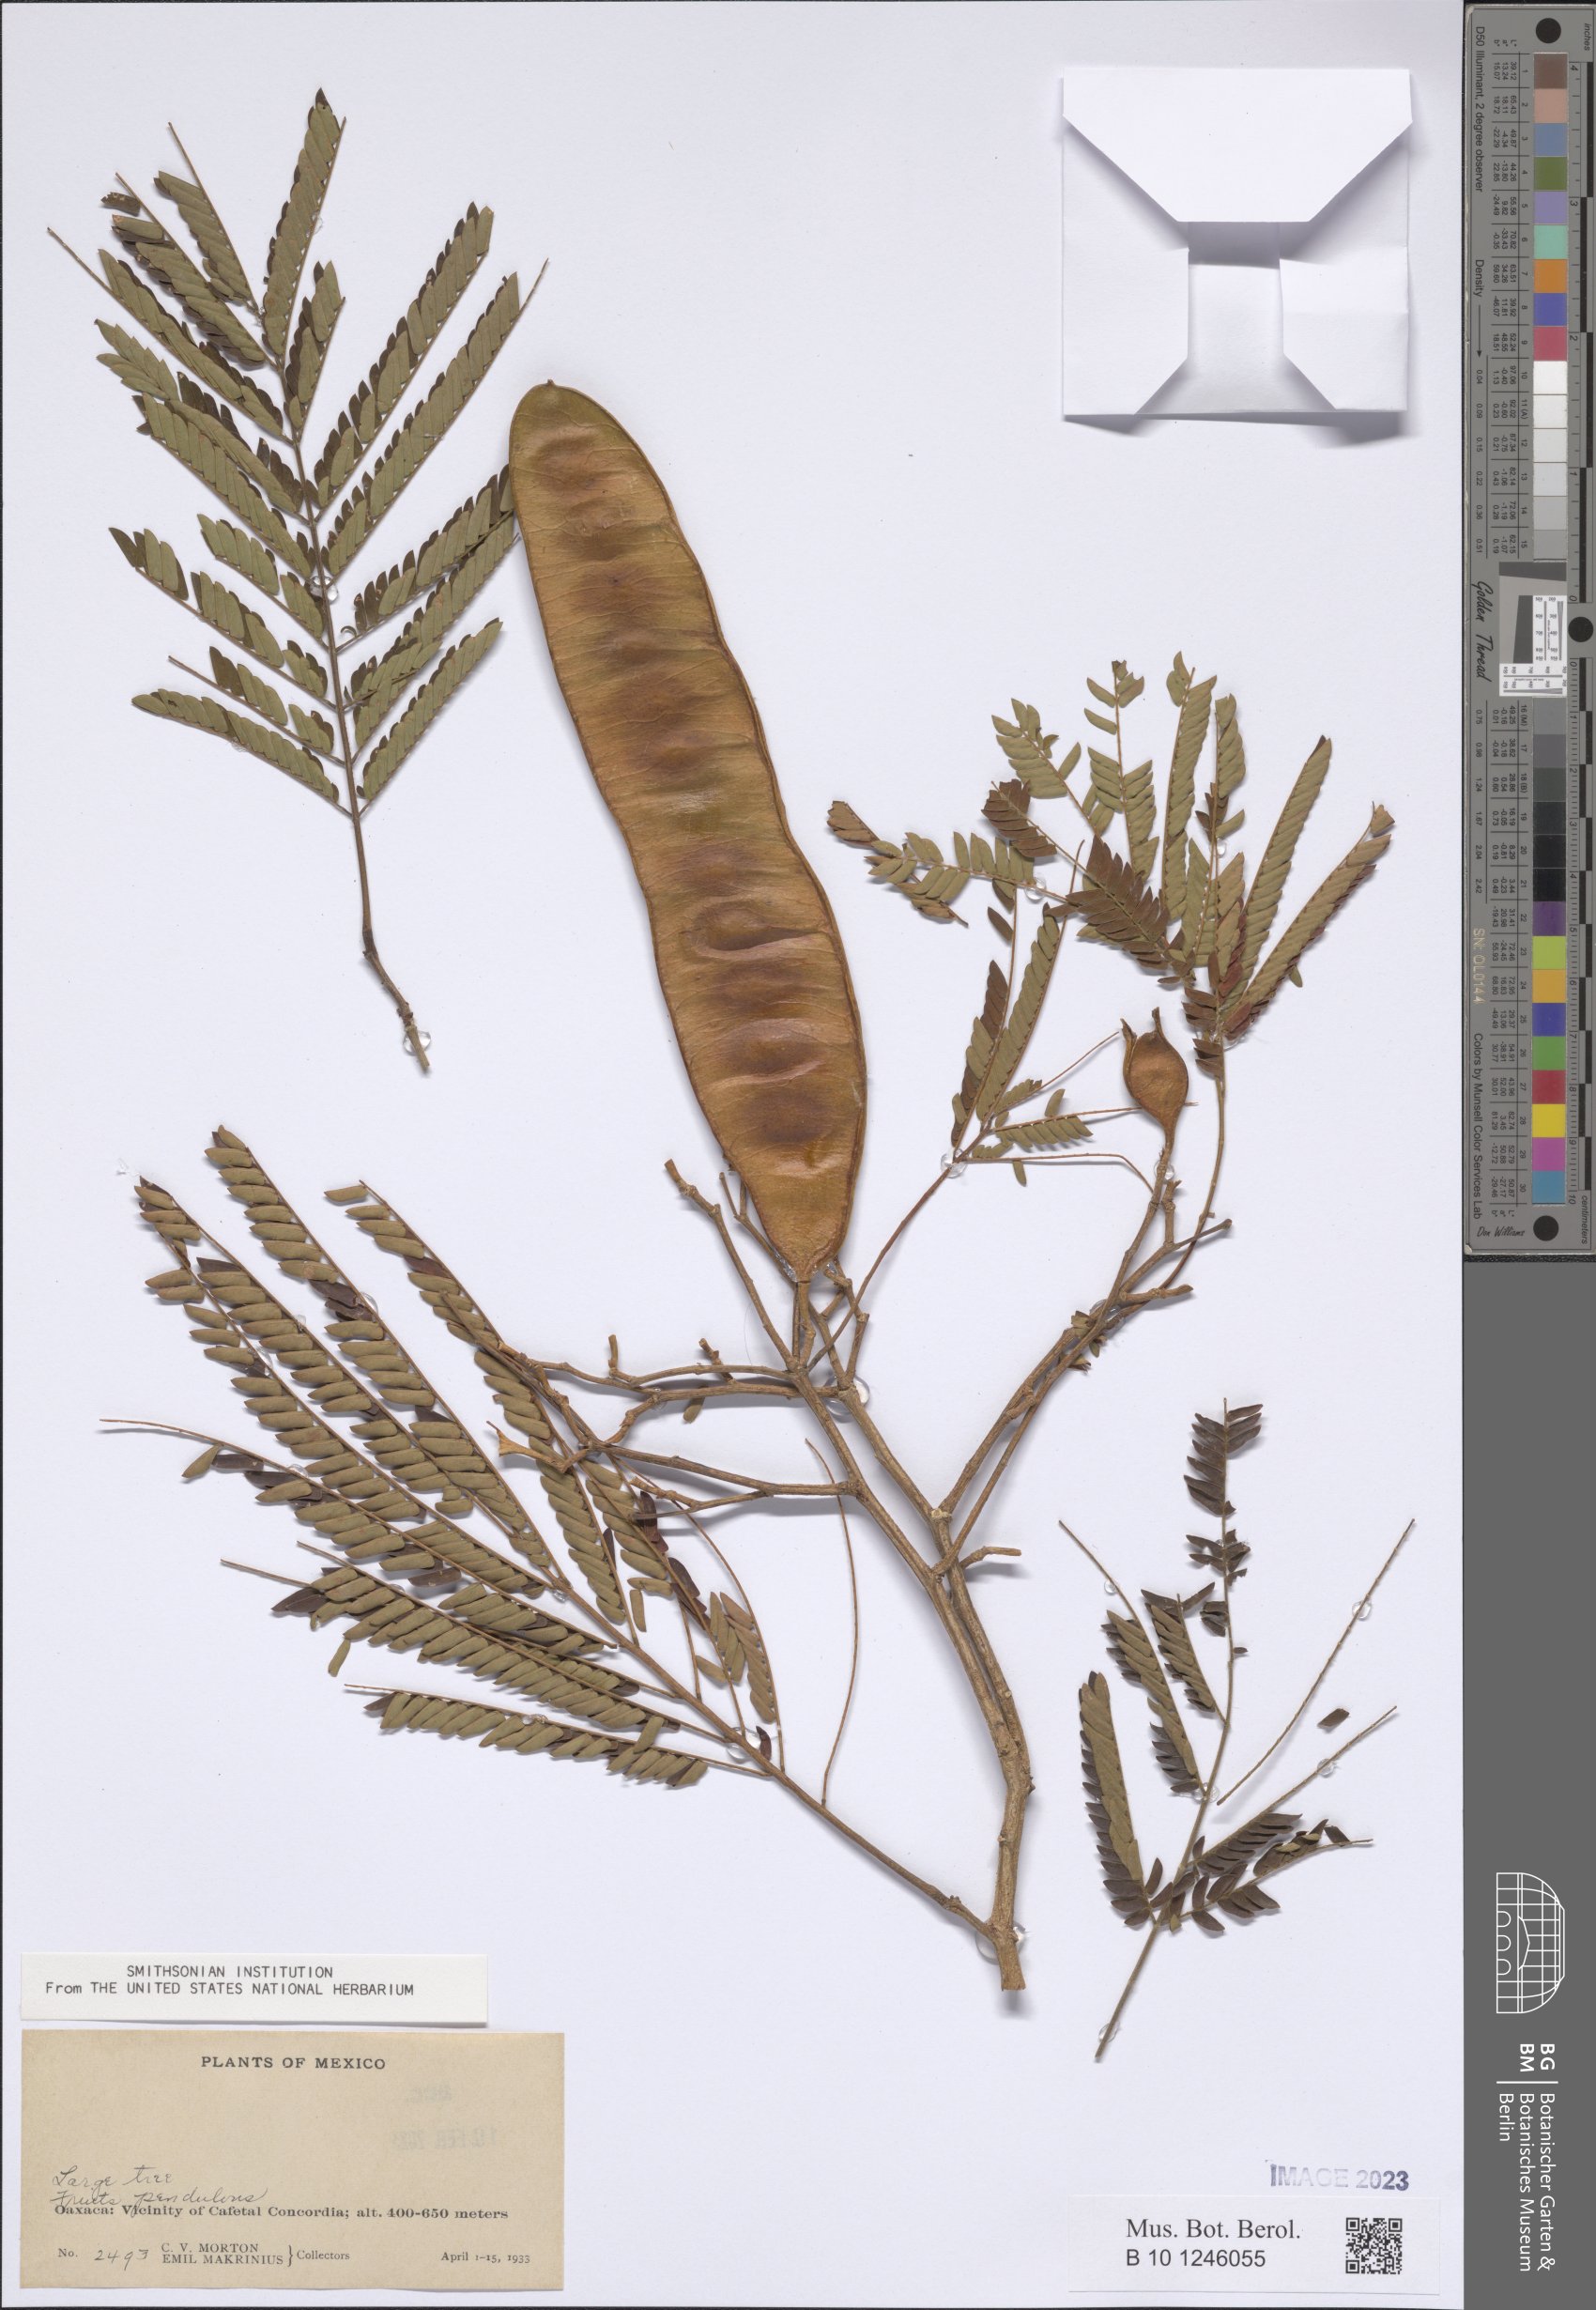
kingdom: Plantae
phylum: Tracheophyta
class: Magnoliopsida
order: Fabales
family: Fabaceae
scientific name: Fabaceae
